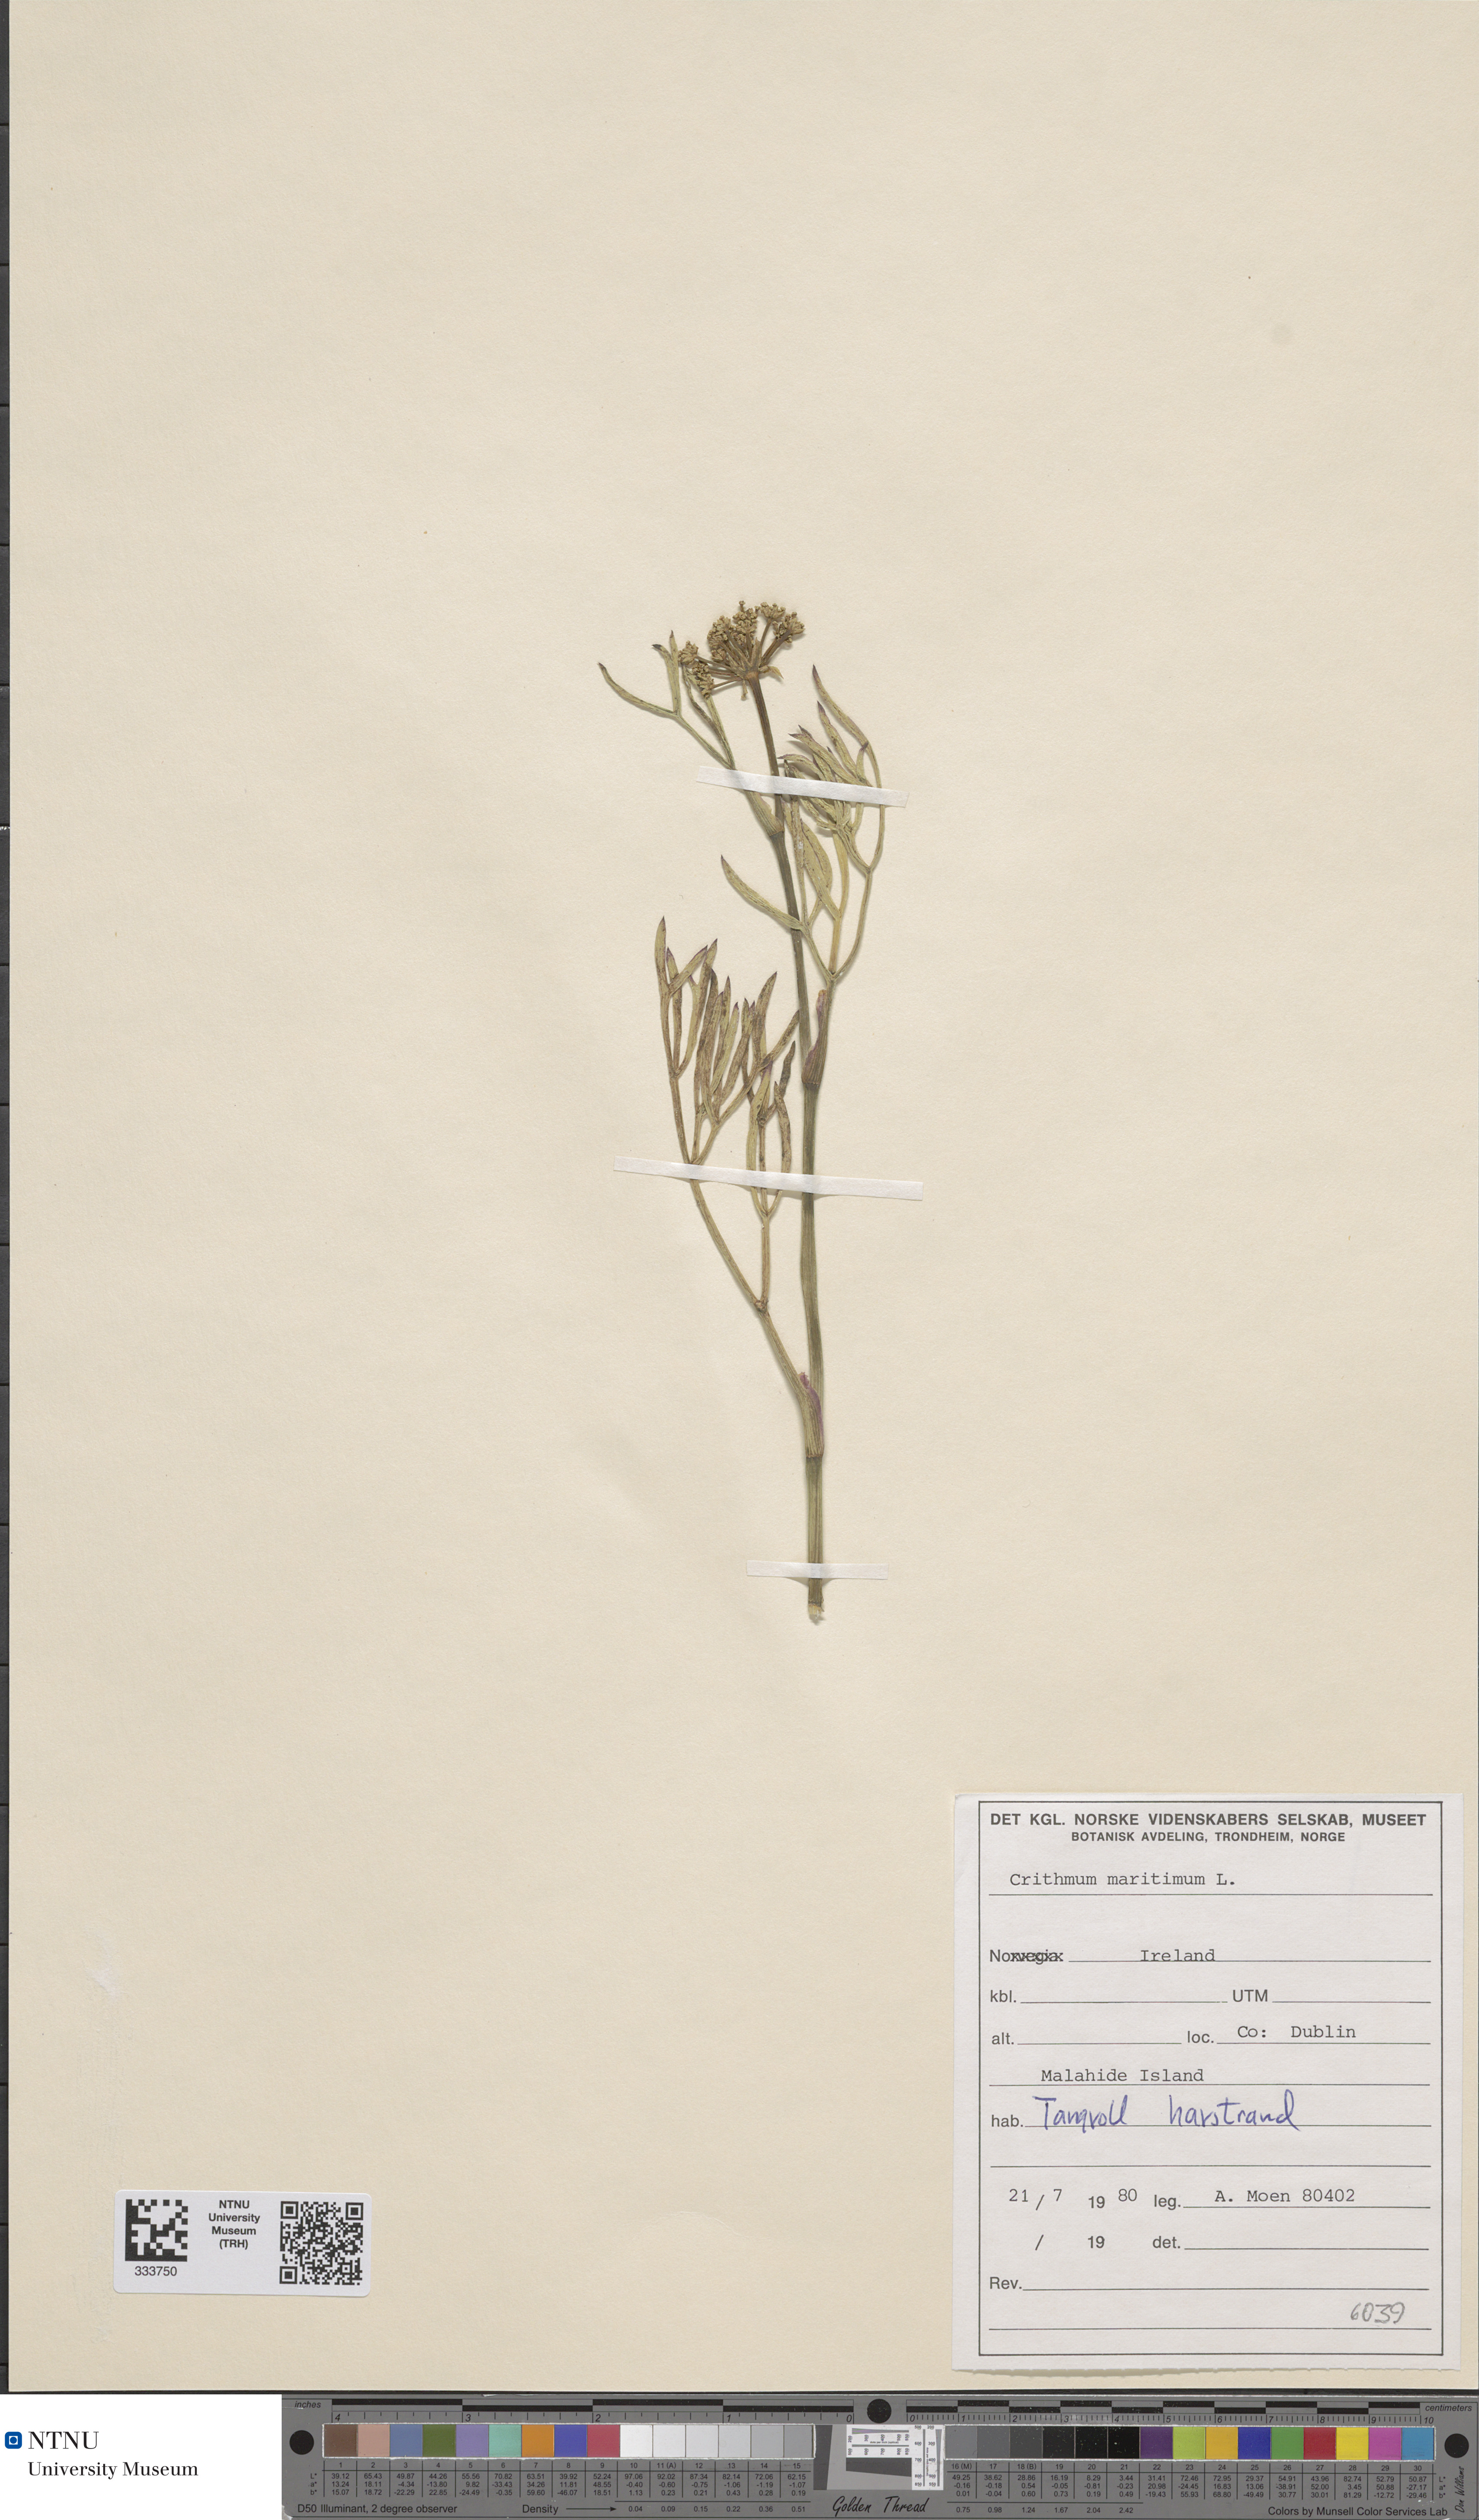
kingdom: Plantae
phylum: Tracheophyta
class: Magnoliopsida
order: Apiales
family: Apiaceae
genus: Crithmum
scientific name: Crithmum maritimum
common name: Rock samphire
